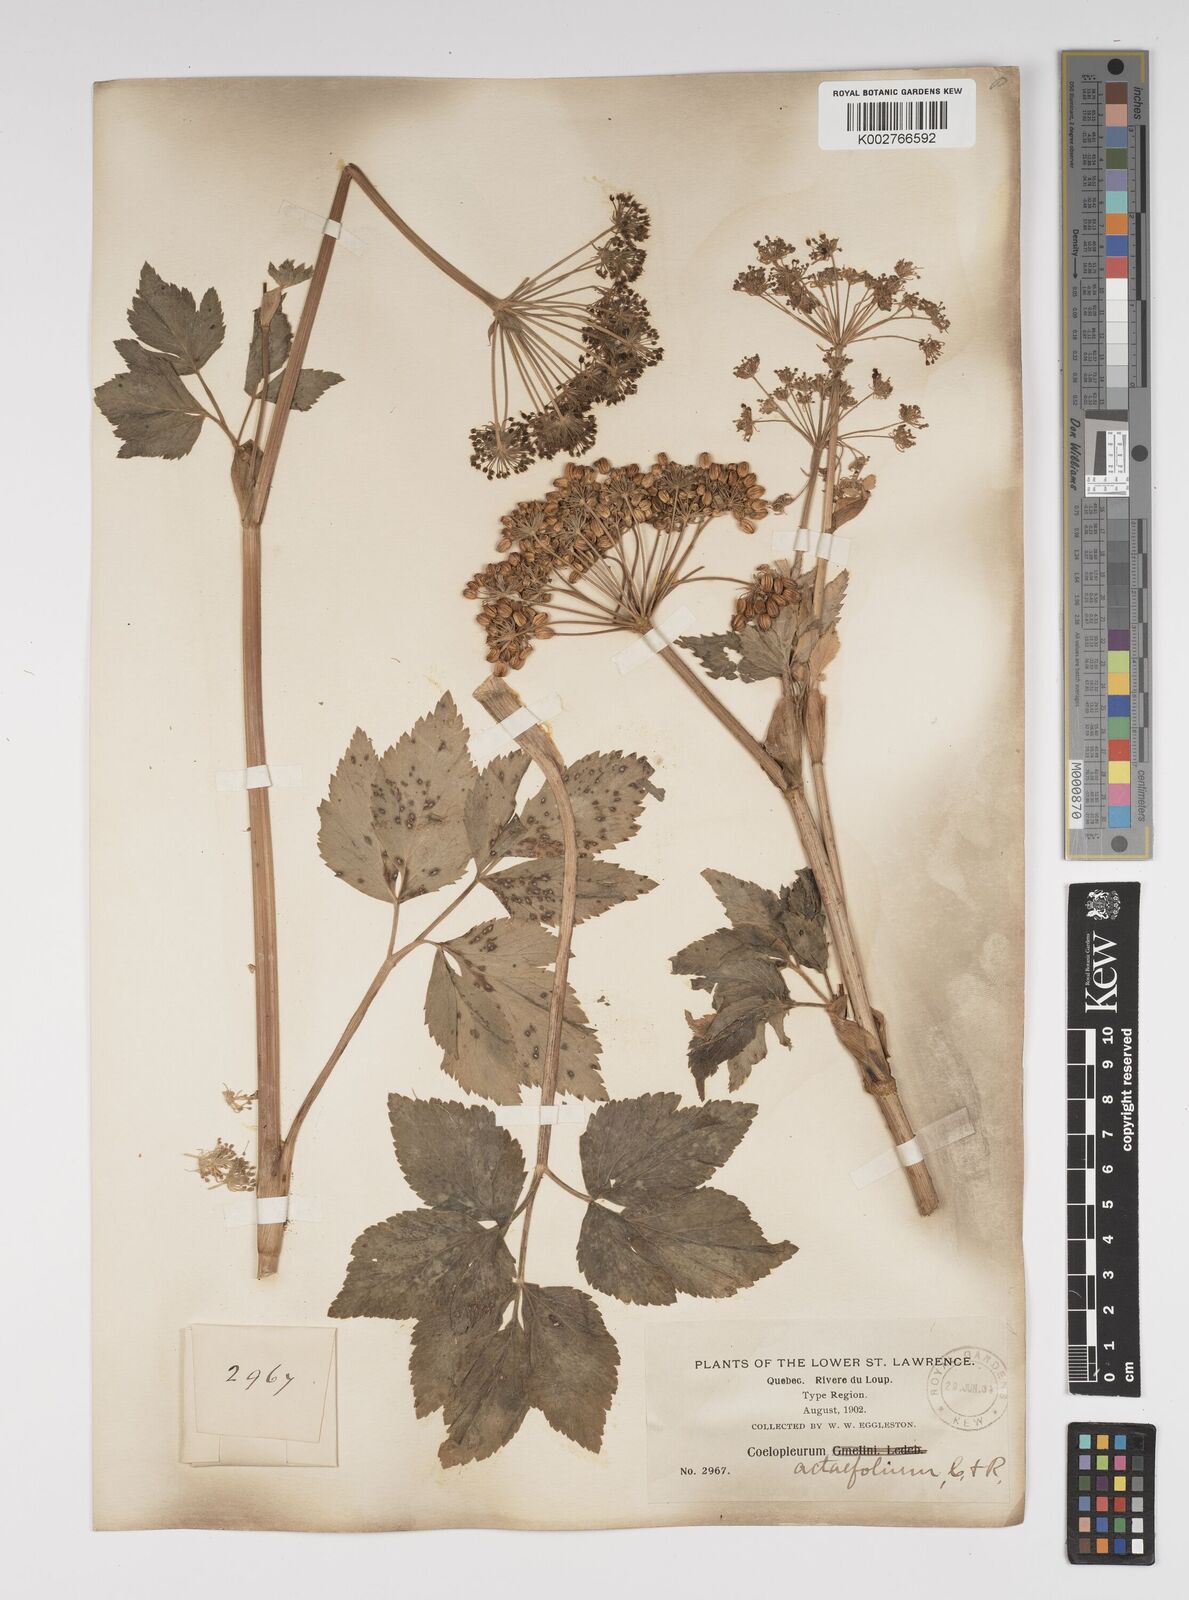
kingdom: Plantae
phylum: Tracheophyta
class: Magnoliopsida
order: Apiales
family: Apiaceae
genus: Angelica
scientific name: Angelica lucida
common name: Seabeach angelica
